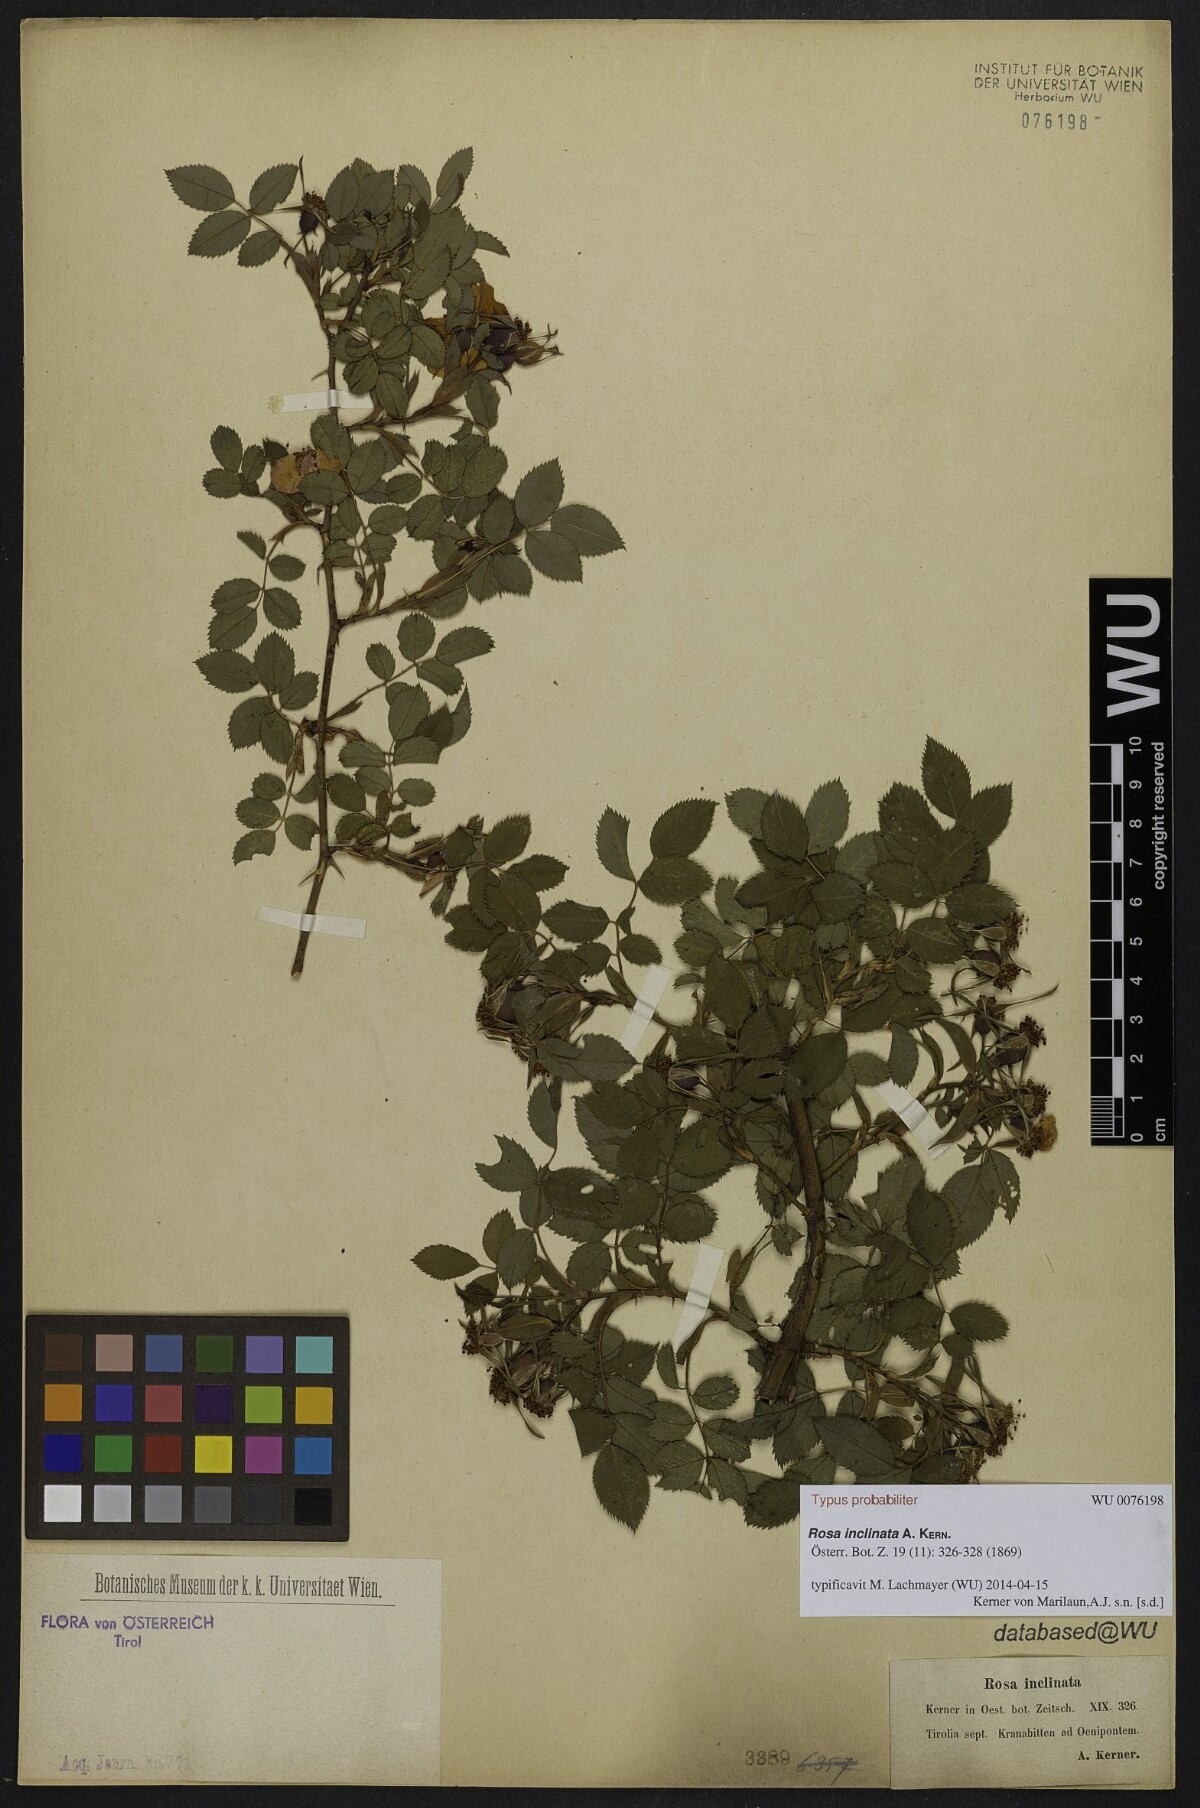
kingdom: Plantae
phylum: Tracheophyta
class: Magnoliopsida
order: Rosales
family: Rosaceae
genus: Rosa
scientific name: Rosa tomentosa
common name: Downy rose
